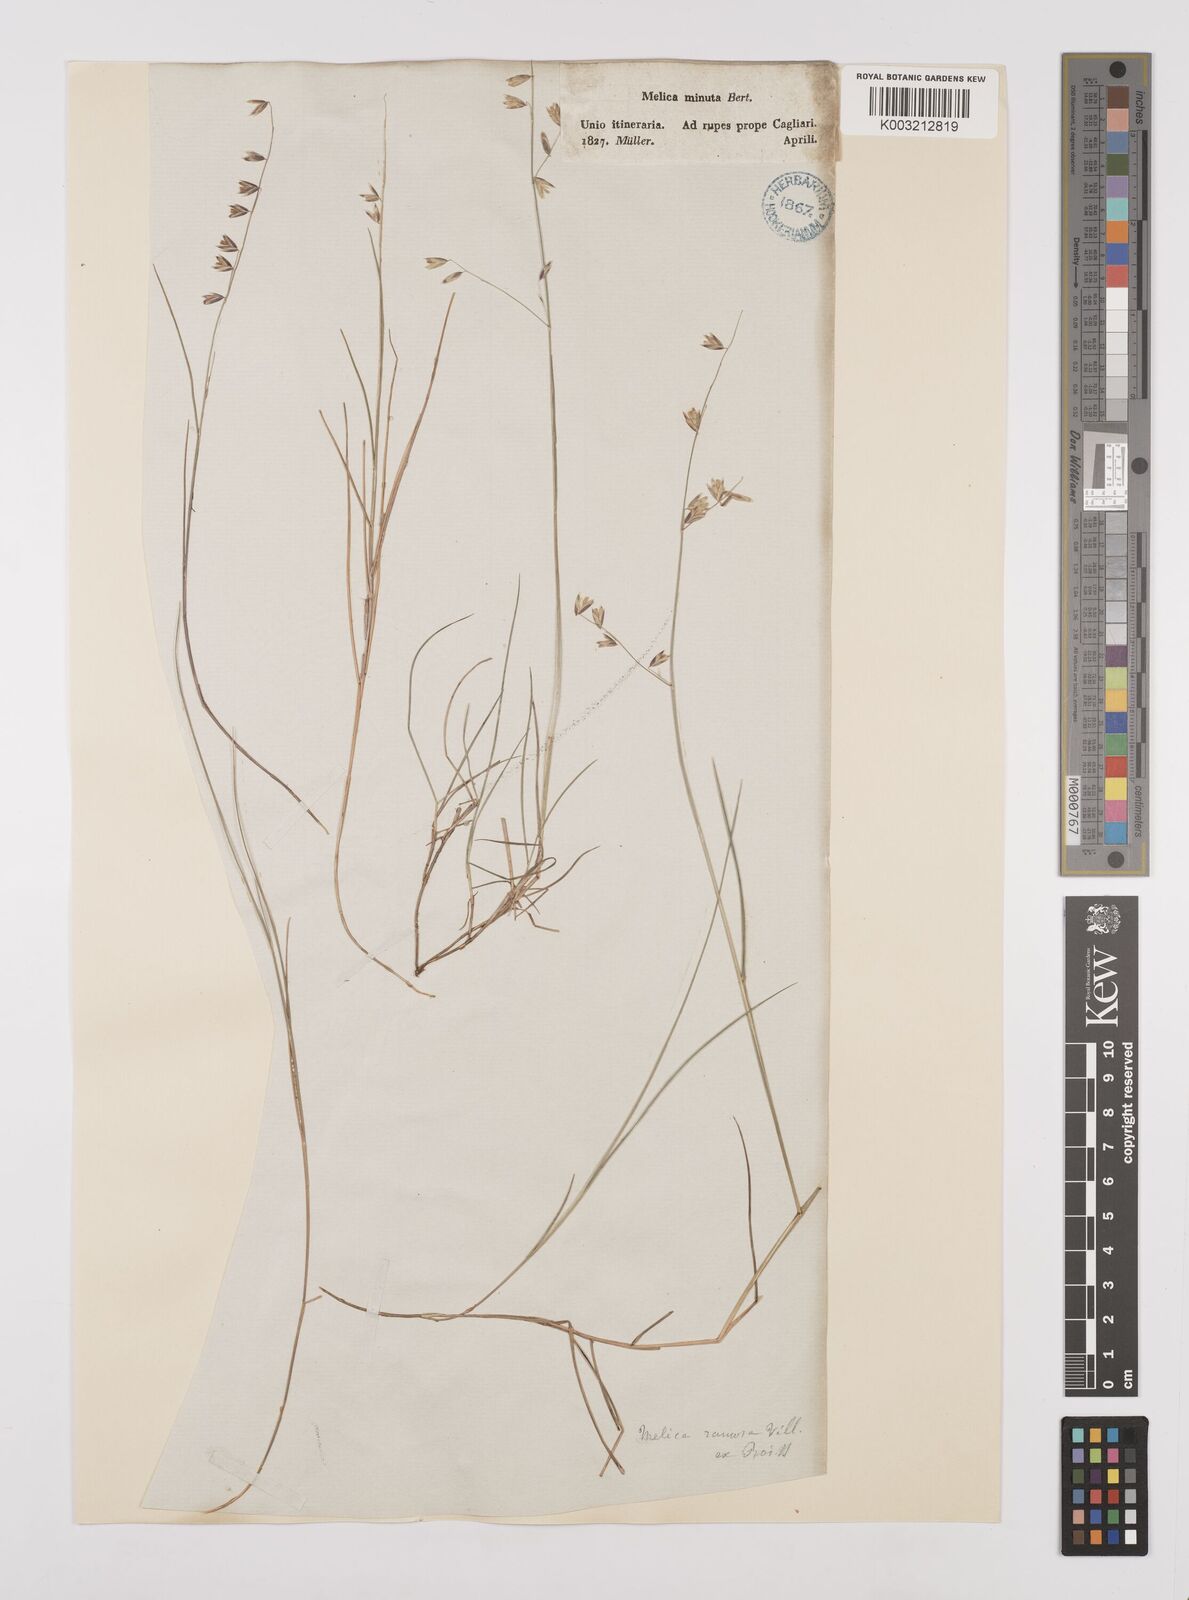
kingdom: Plantae
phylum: Tracheophyta
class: Liliopsida
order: Poales
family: Poaceae
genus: Melica
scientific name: Melica minuta
